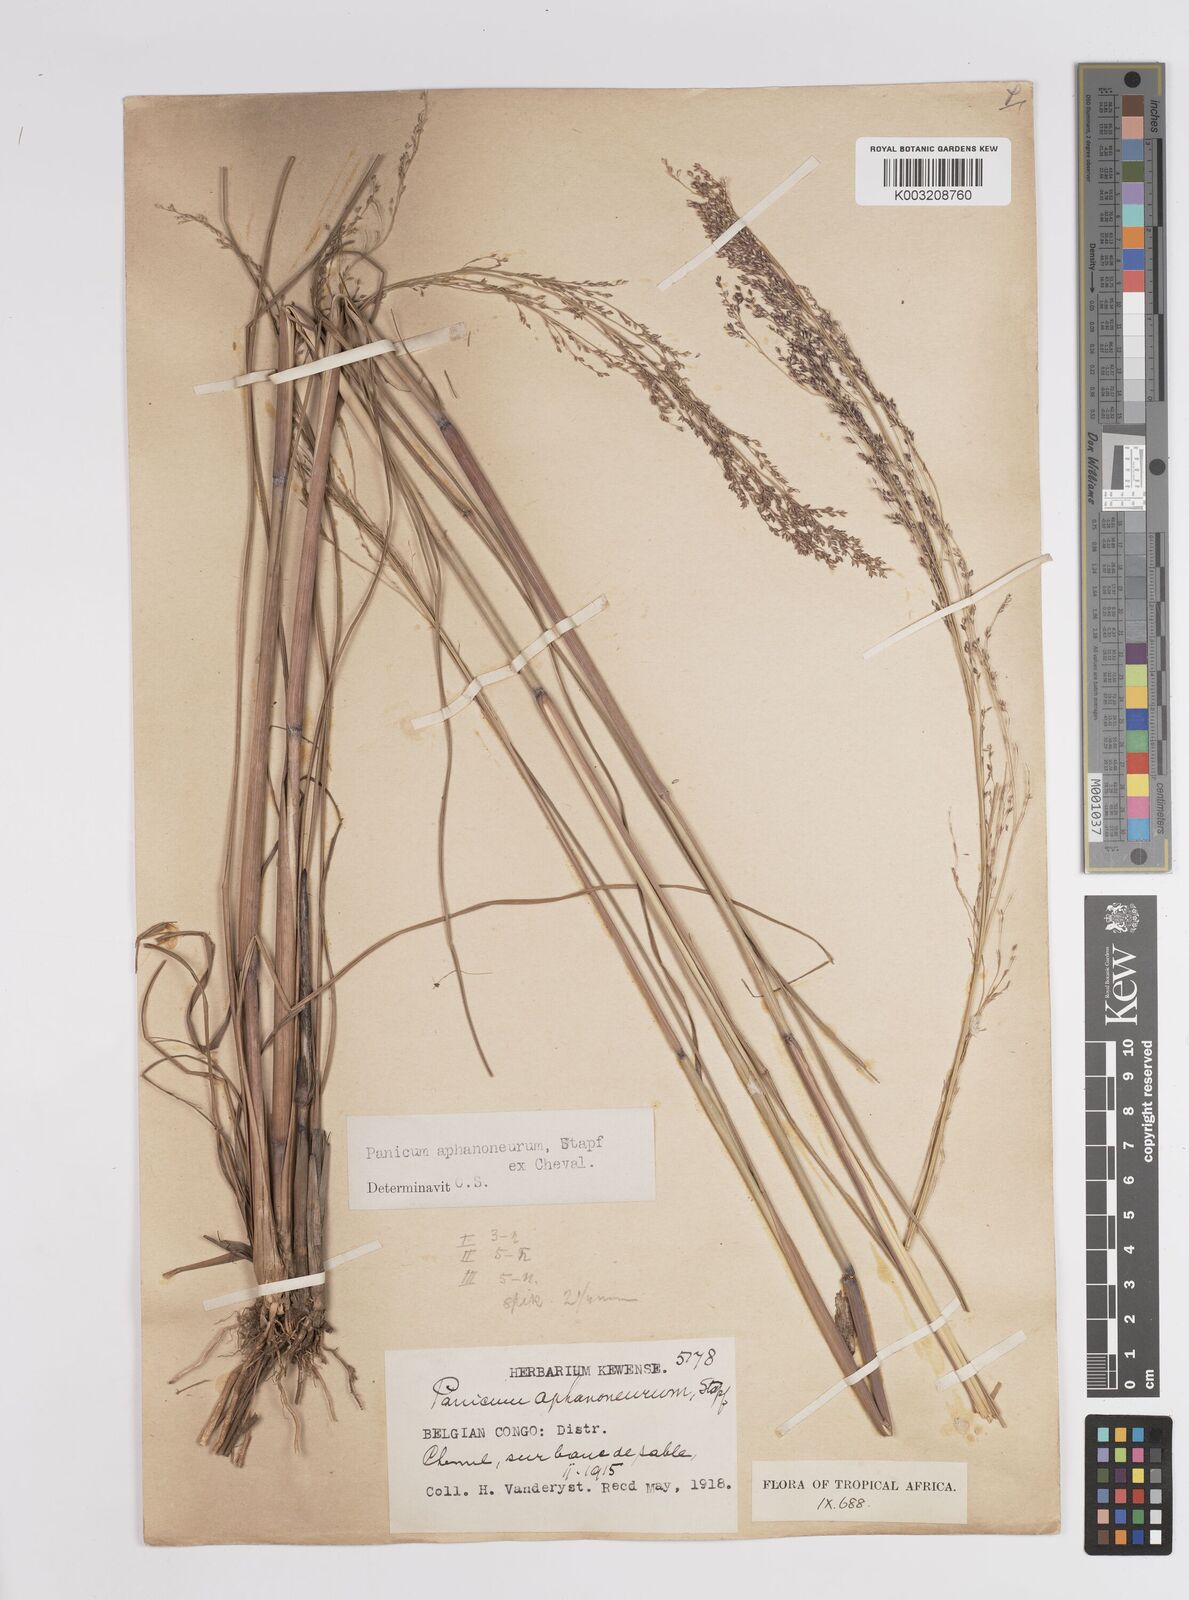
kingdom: Plantae
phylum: Tracheophyta
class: Liliopsida
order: Poales
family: Poaceae
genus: Panicum
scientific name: Panicum fluviicola
